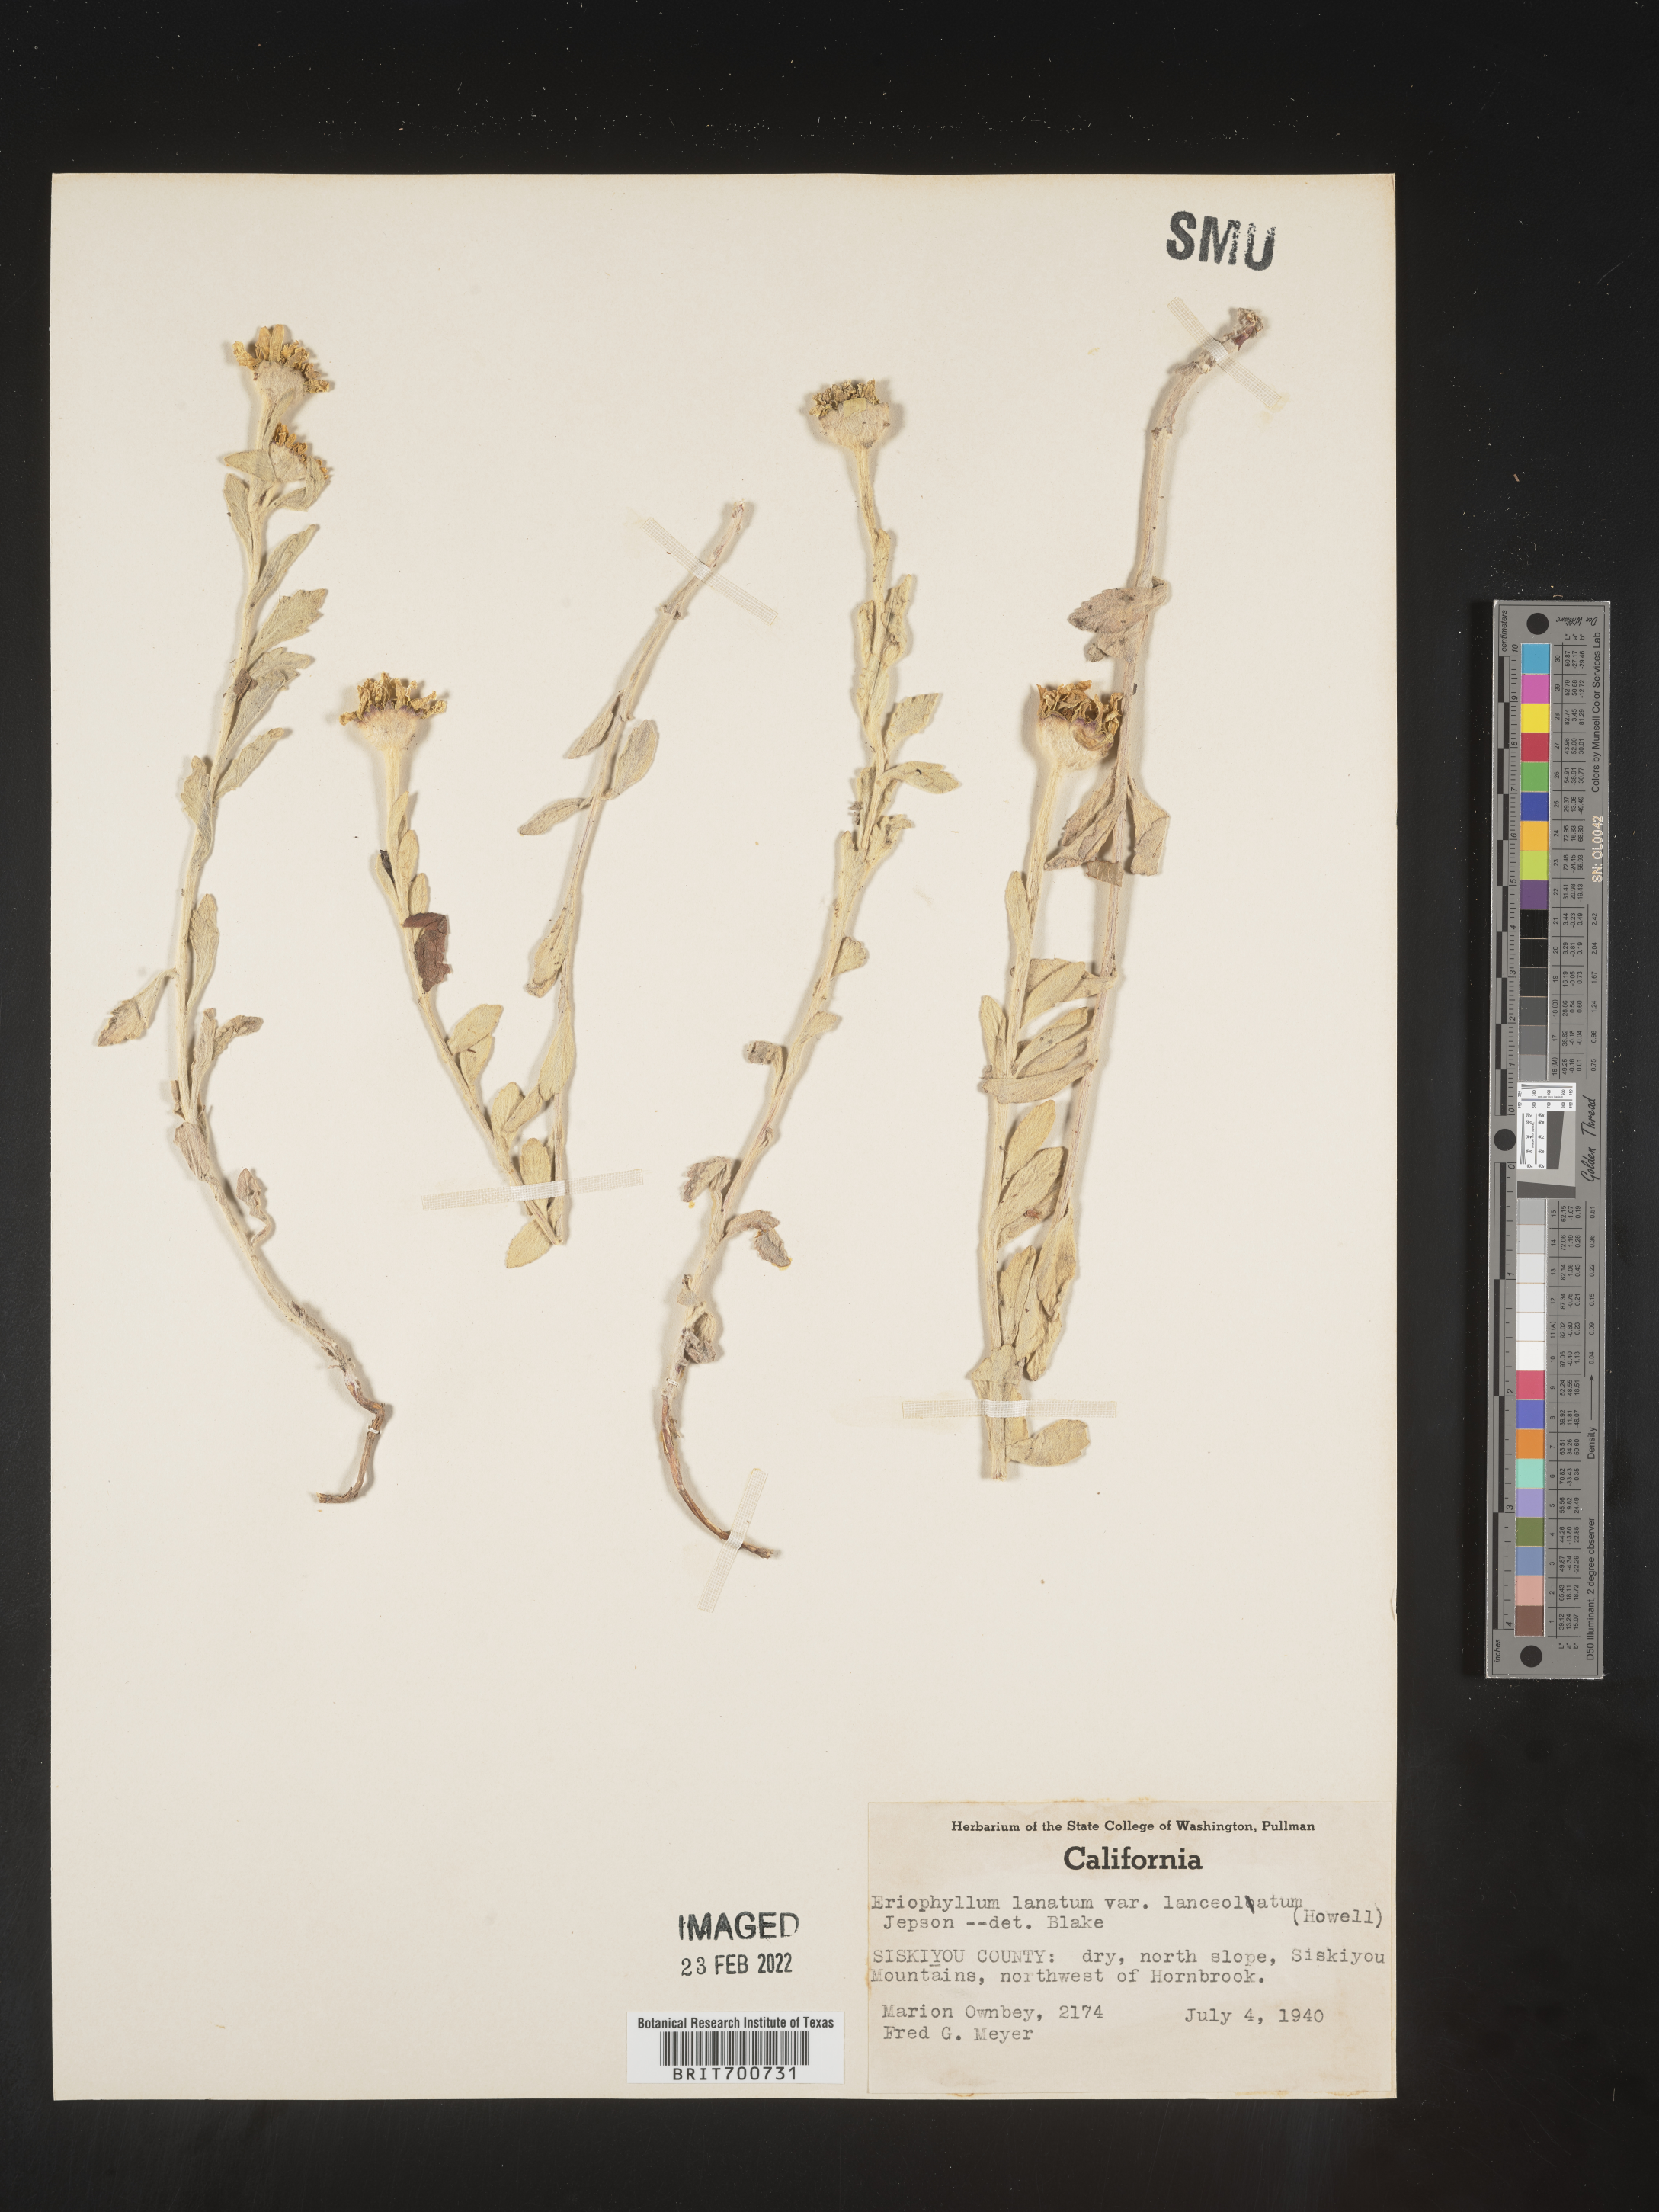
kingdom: Plantae
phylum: Tracheophyta
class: Magnoliopsida
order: Asterales
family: Asteraceae
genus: Eriophyllum
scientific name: Eriophyllum lanatum
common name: Common woolly-sunflower
